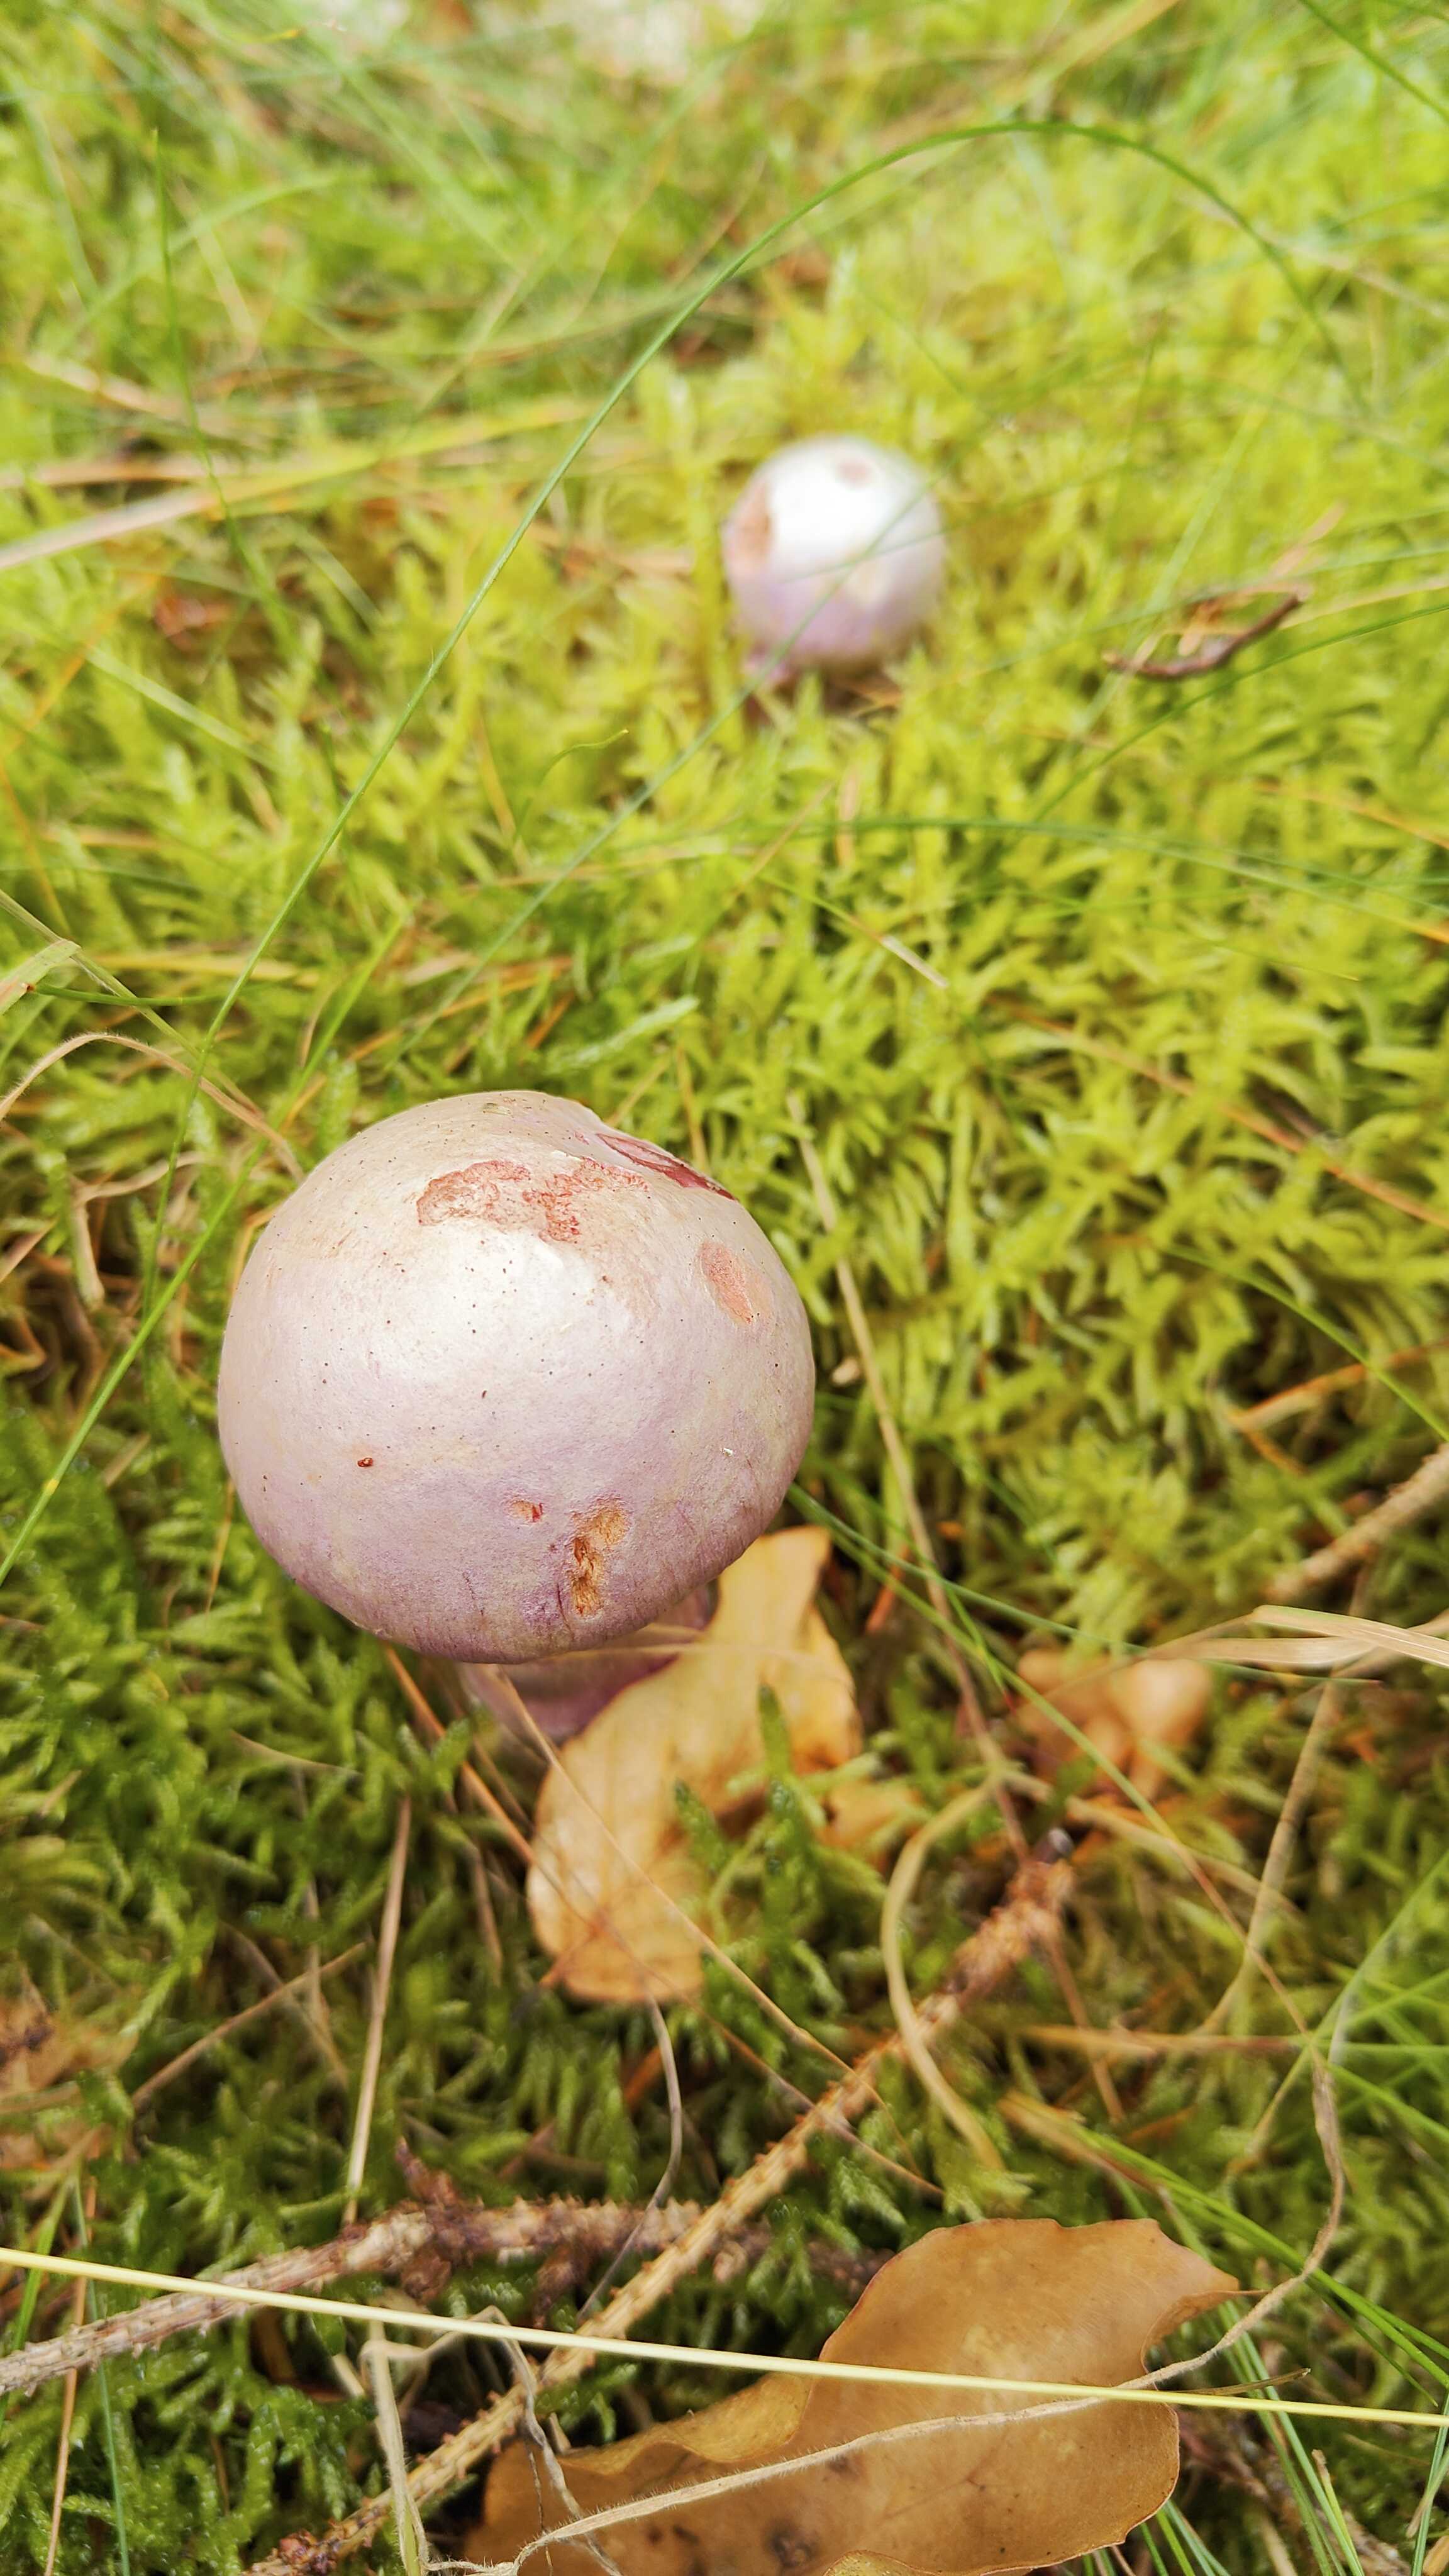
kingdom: Fungi
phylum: Basidiomycota
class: Agaricomycetes
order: Agaricales
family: Cortinariaceae
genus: Cortinarius
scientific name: Cortinarius traganus
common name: safrankødet slørhat
